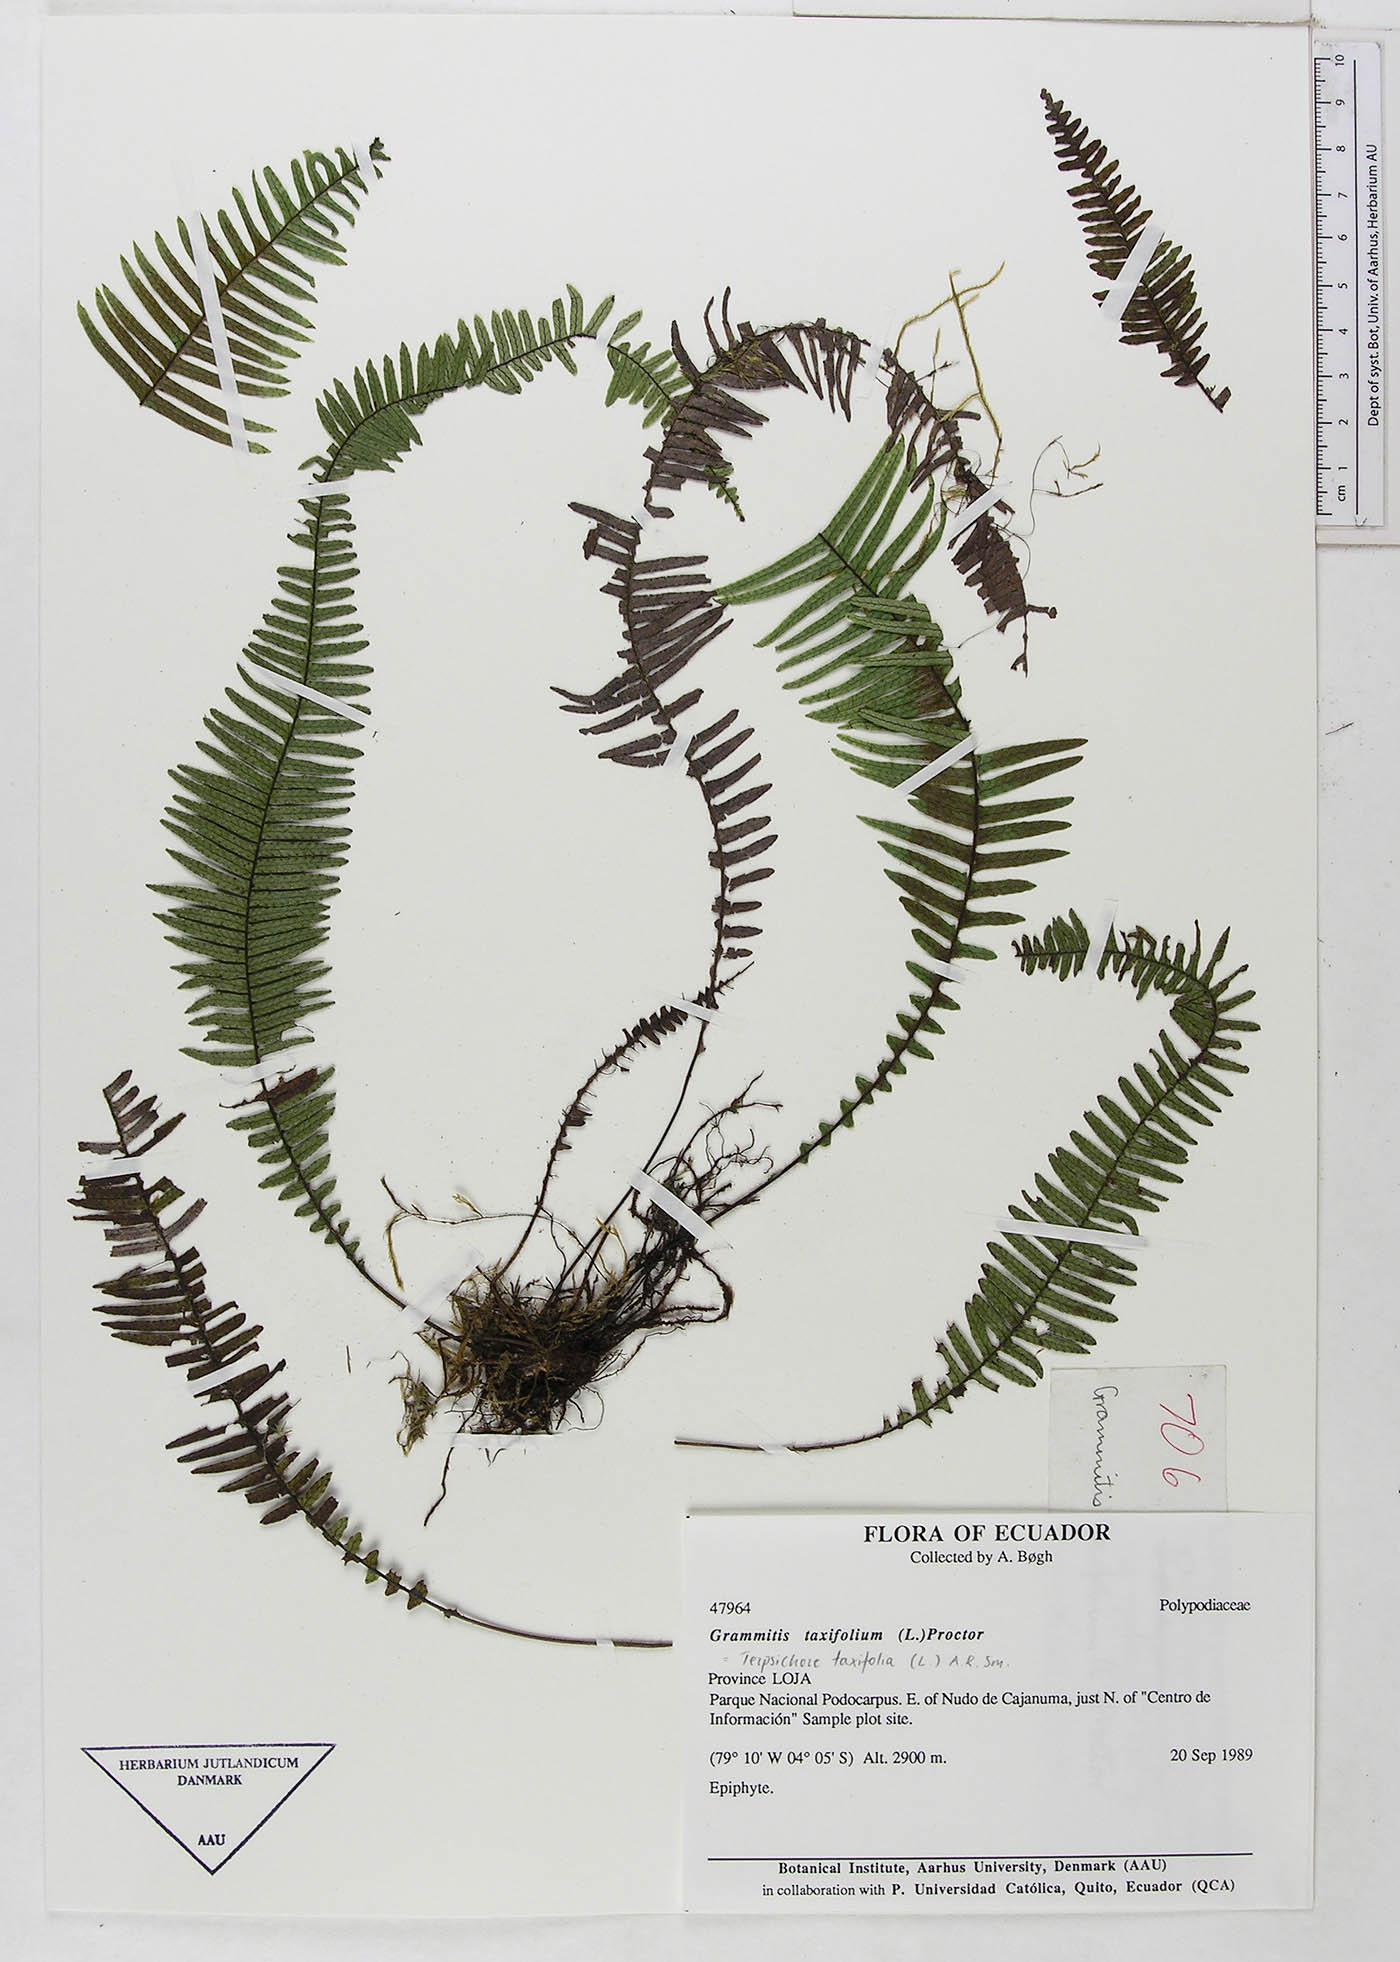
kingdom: Plantae
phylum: Tracheophyta
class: Polypodiopsida
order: Polypodiales
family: Polypodiaceae
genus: Mycopteris
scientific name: Mycopteris taxifolia
